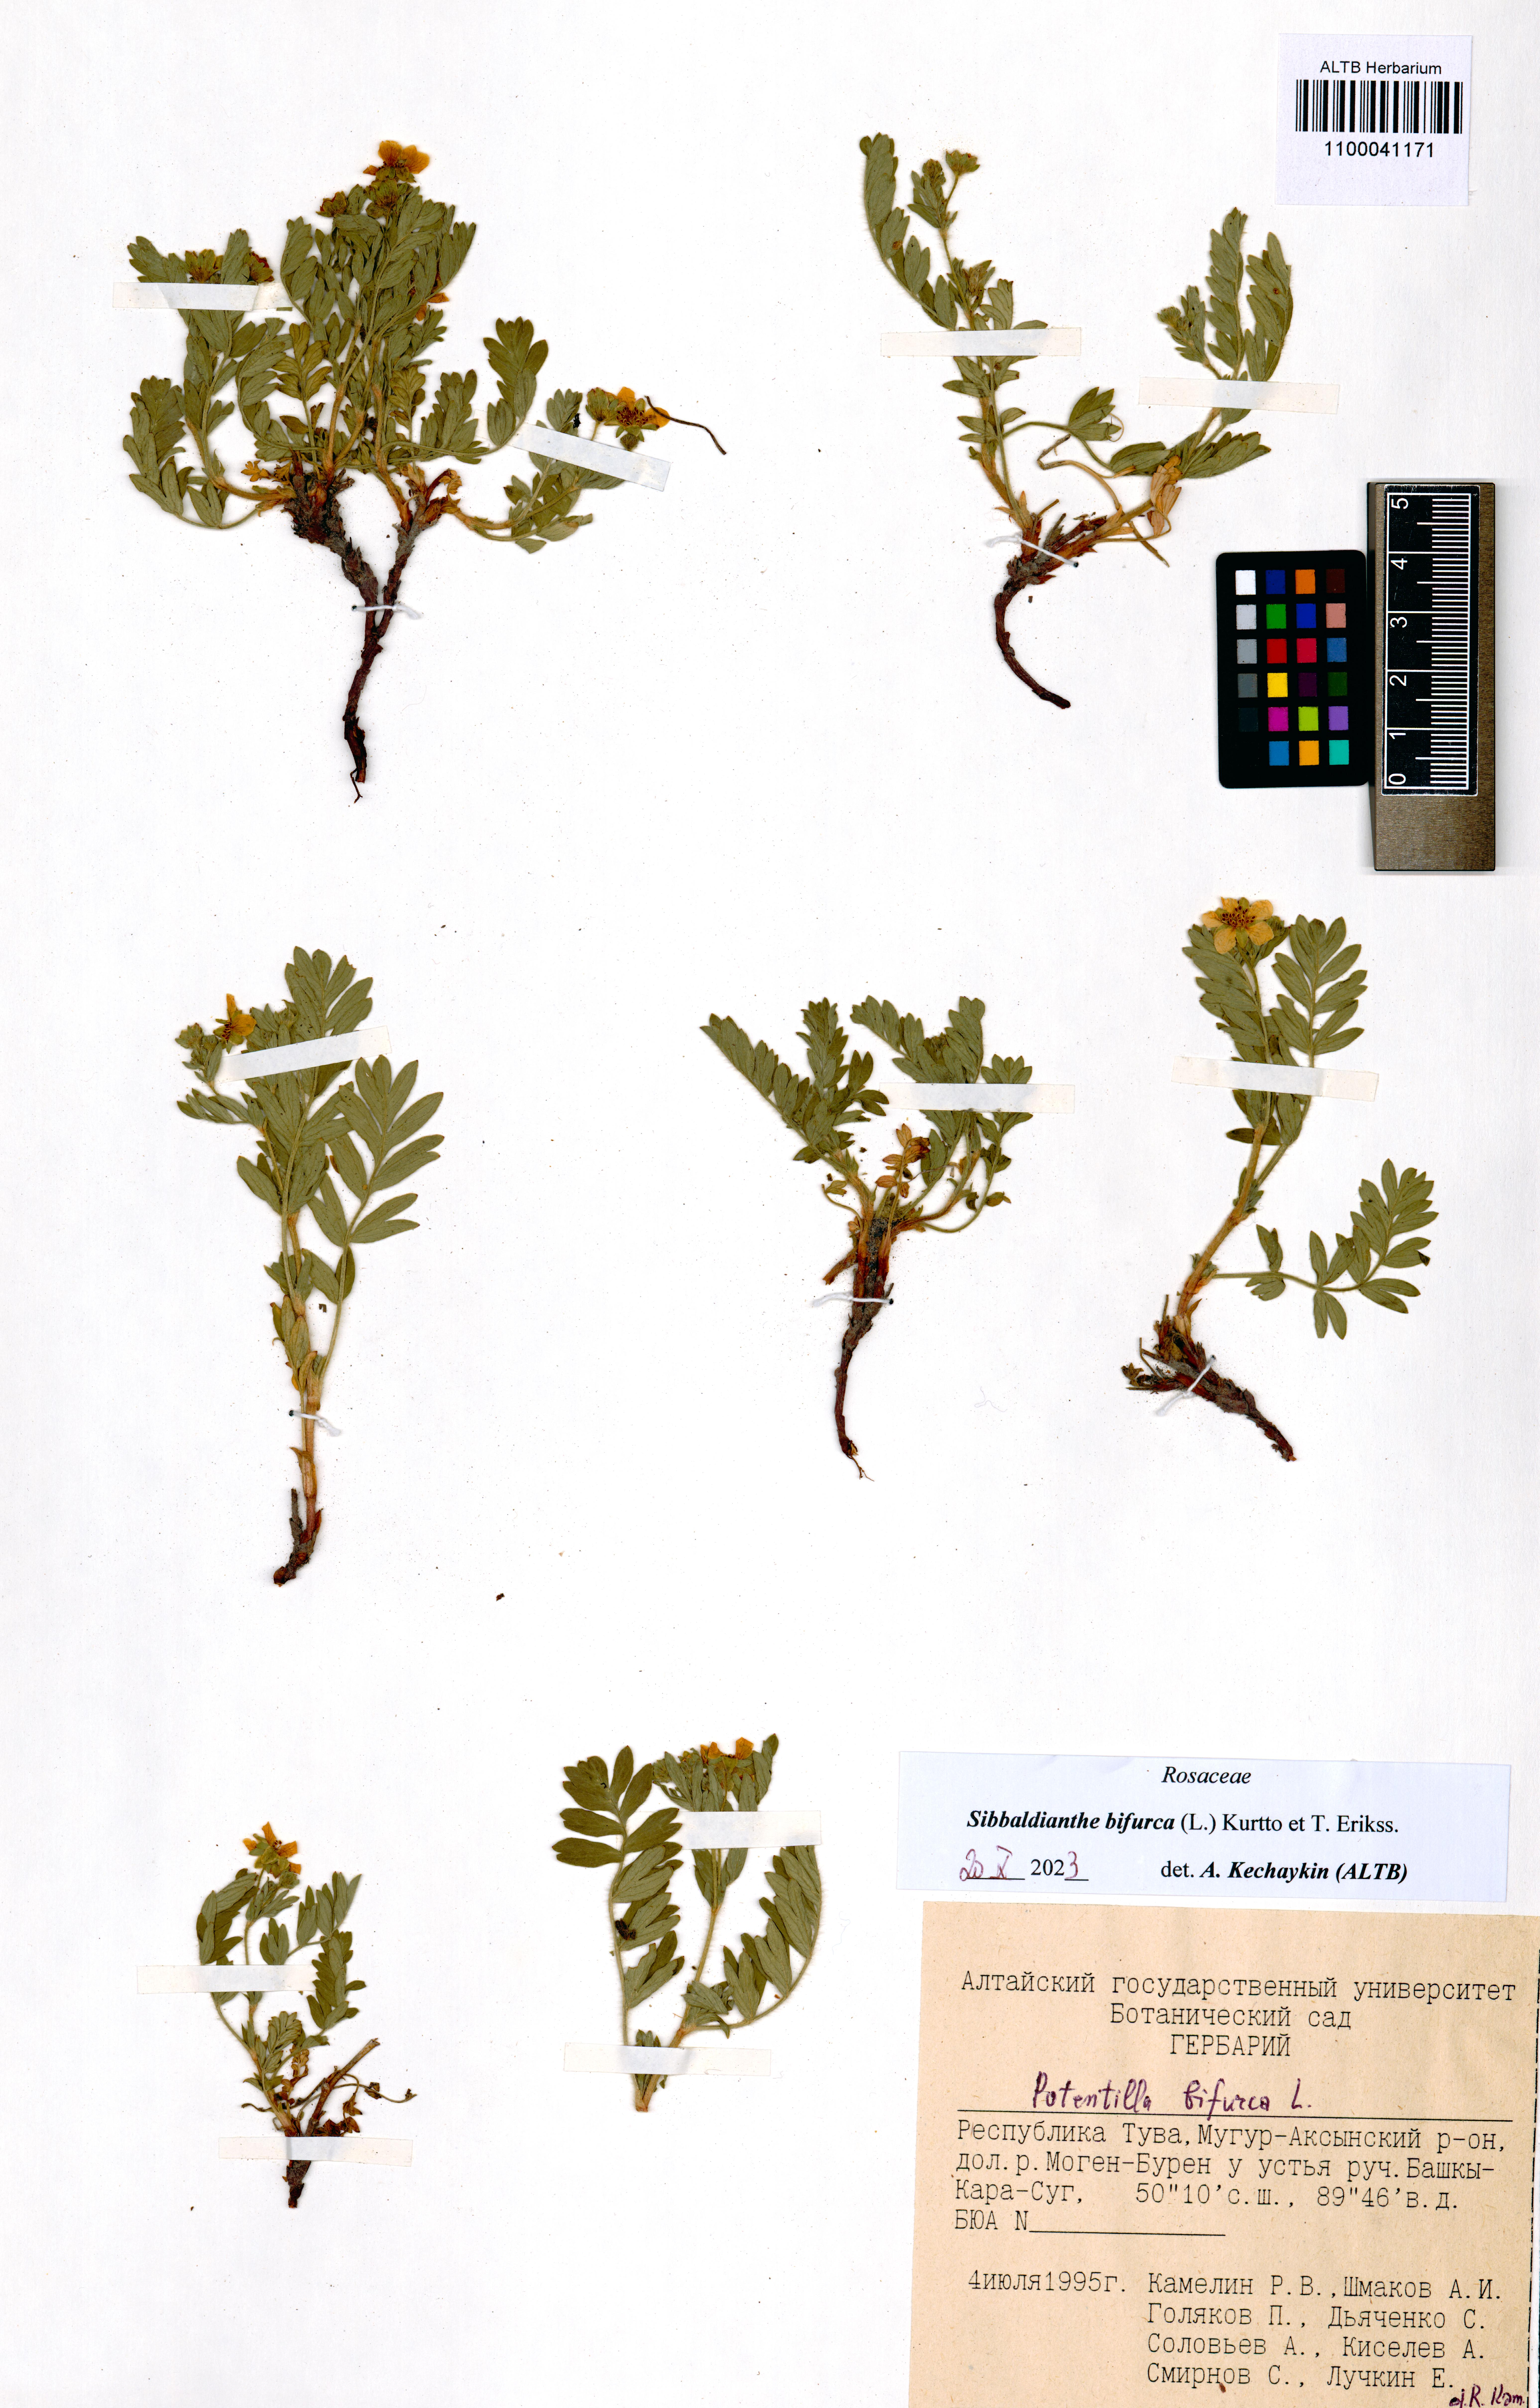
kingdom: Plantae
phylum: Tracheophyta
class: Magnoliopsida
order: Rosales
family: Rosaceae
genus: Sibbaldianthe
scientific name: Sibbaldianthe bifurca
